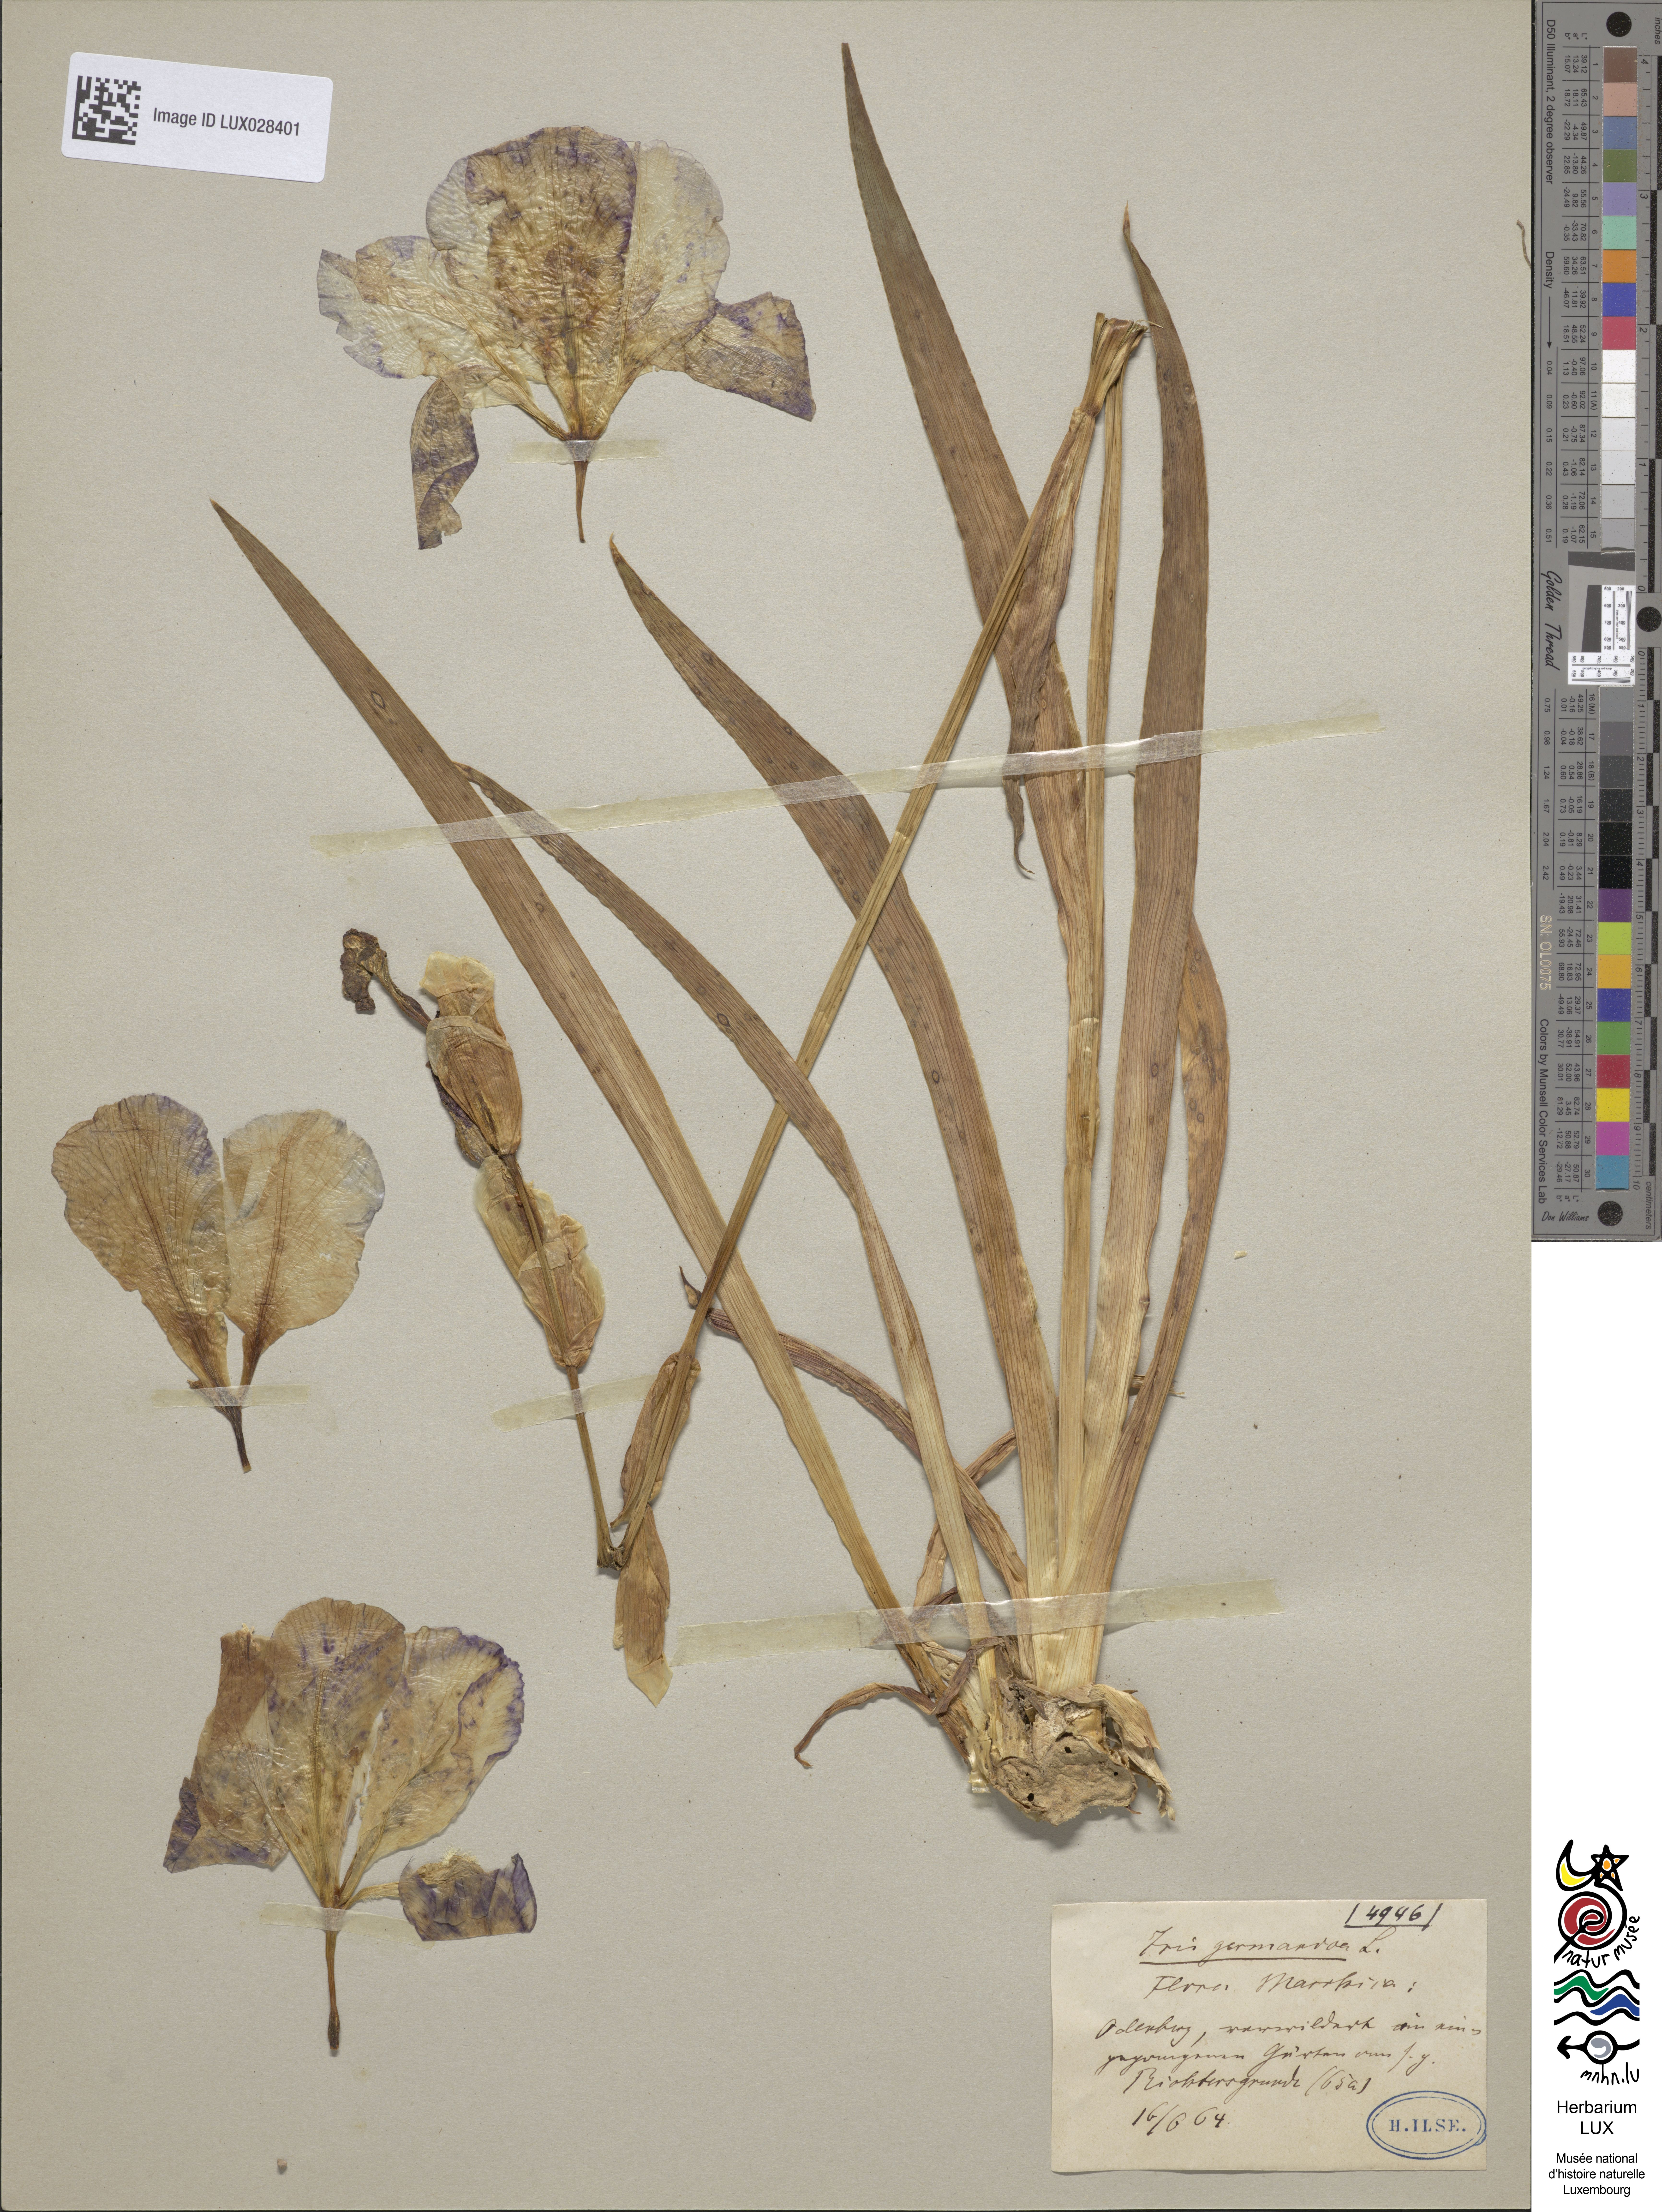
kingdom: Plantae
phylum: Tracheophyta
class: Liliopsida
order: Asparagales
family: Iridaceae
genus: Iris
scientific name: Iris germanica
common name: German iris
